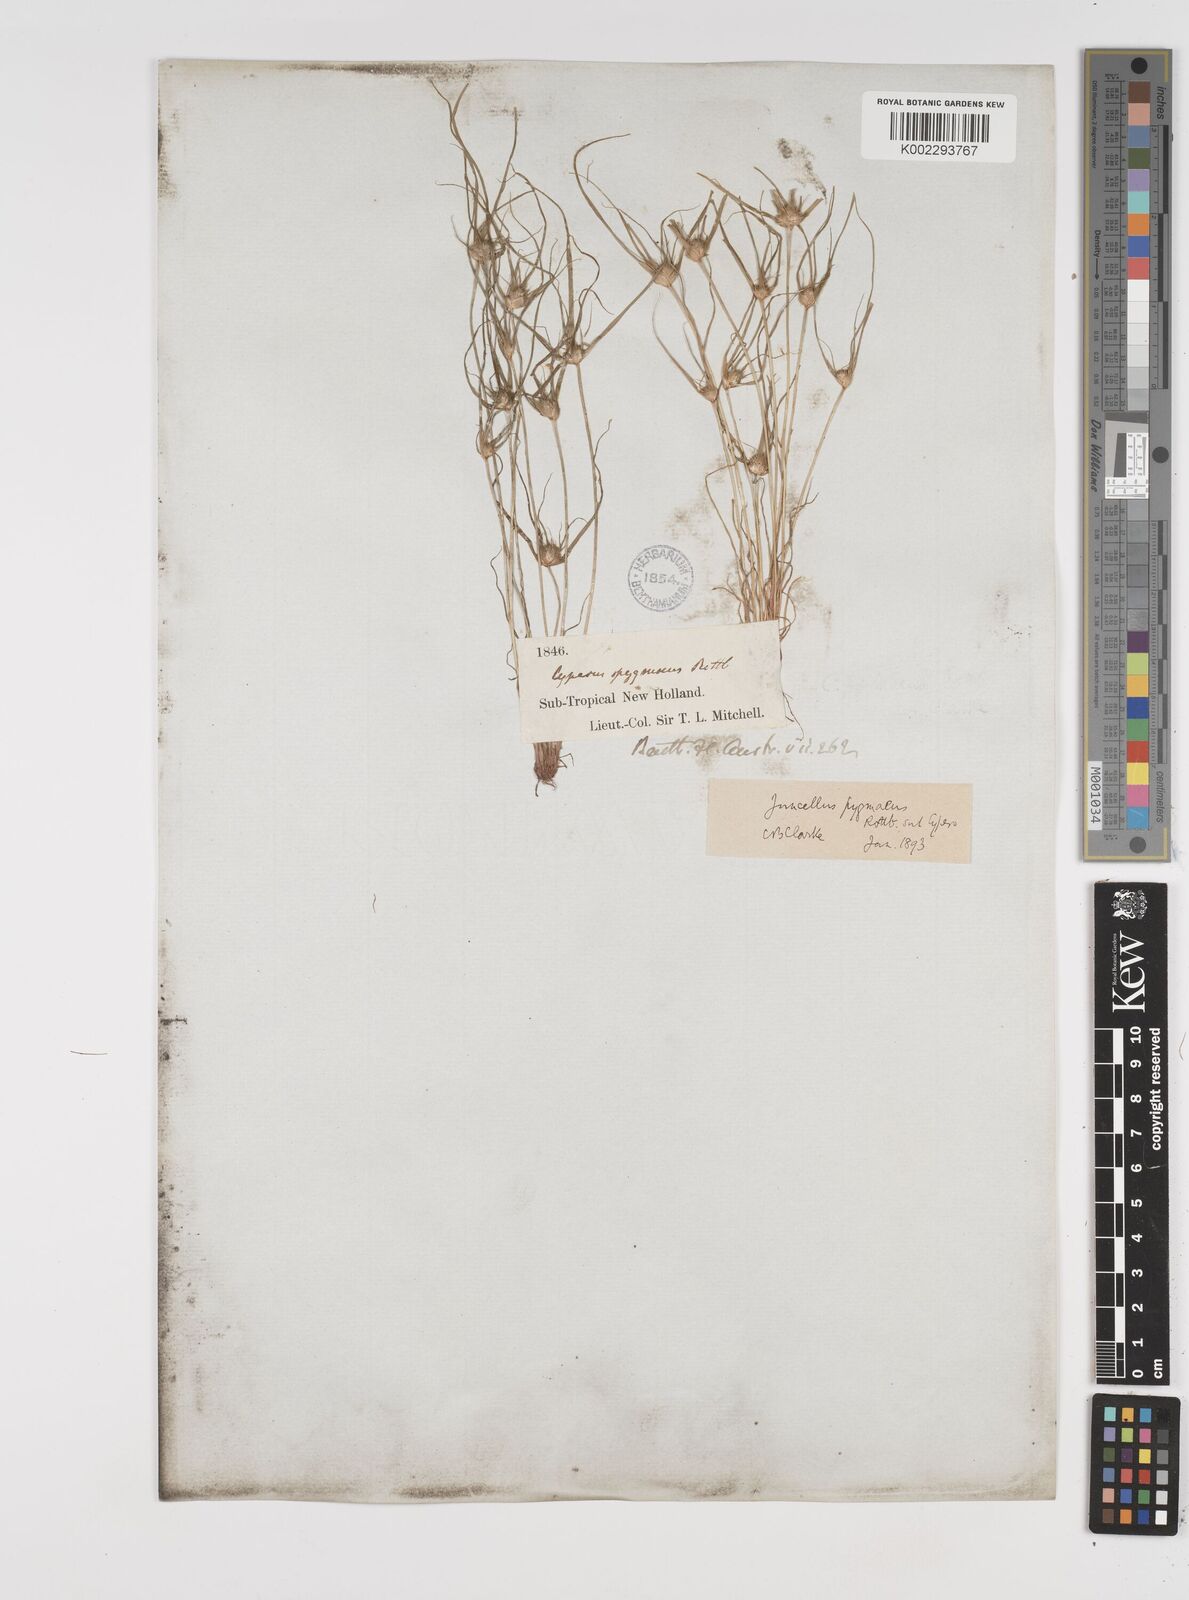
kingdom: Plantae
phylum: Tracheophyta
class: Liliopsida
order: Poales
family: Cyperaceae
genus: Cyperus
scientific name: Cyperus michelianus
